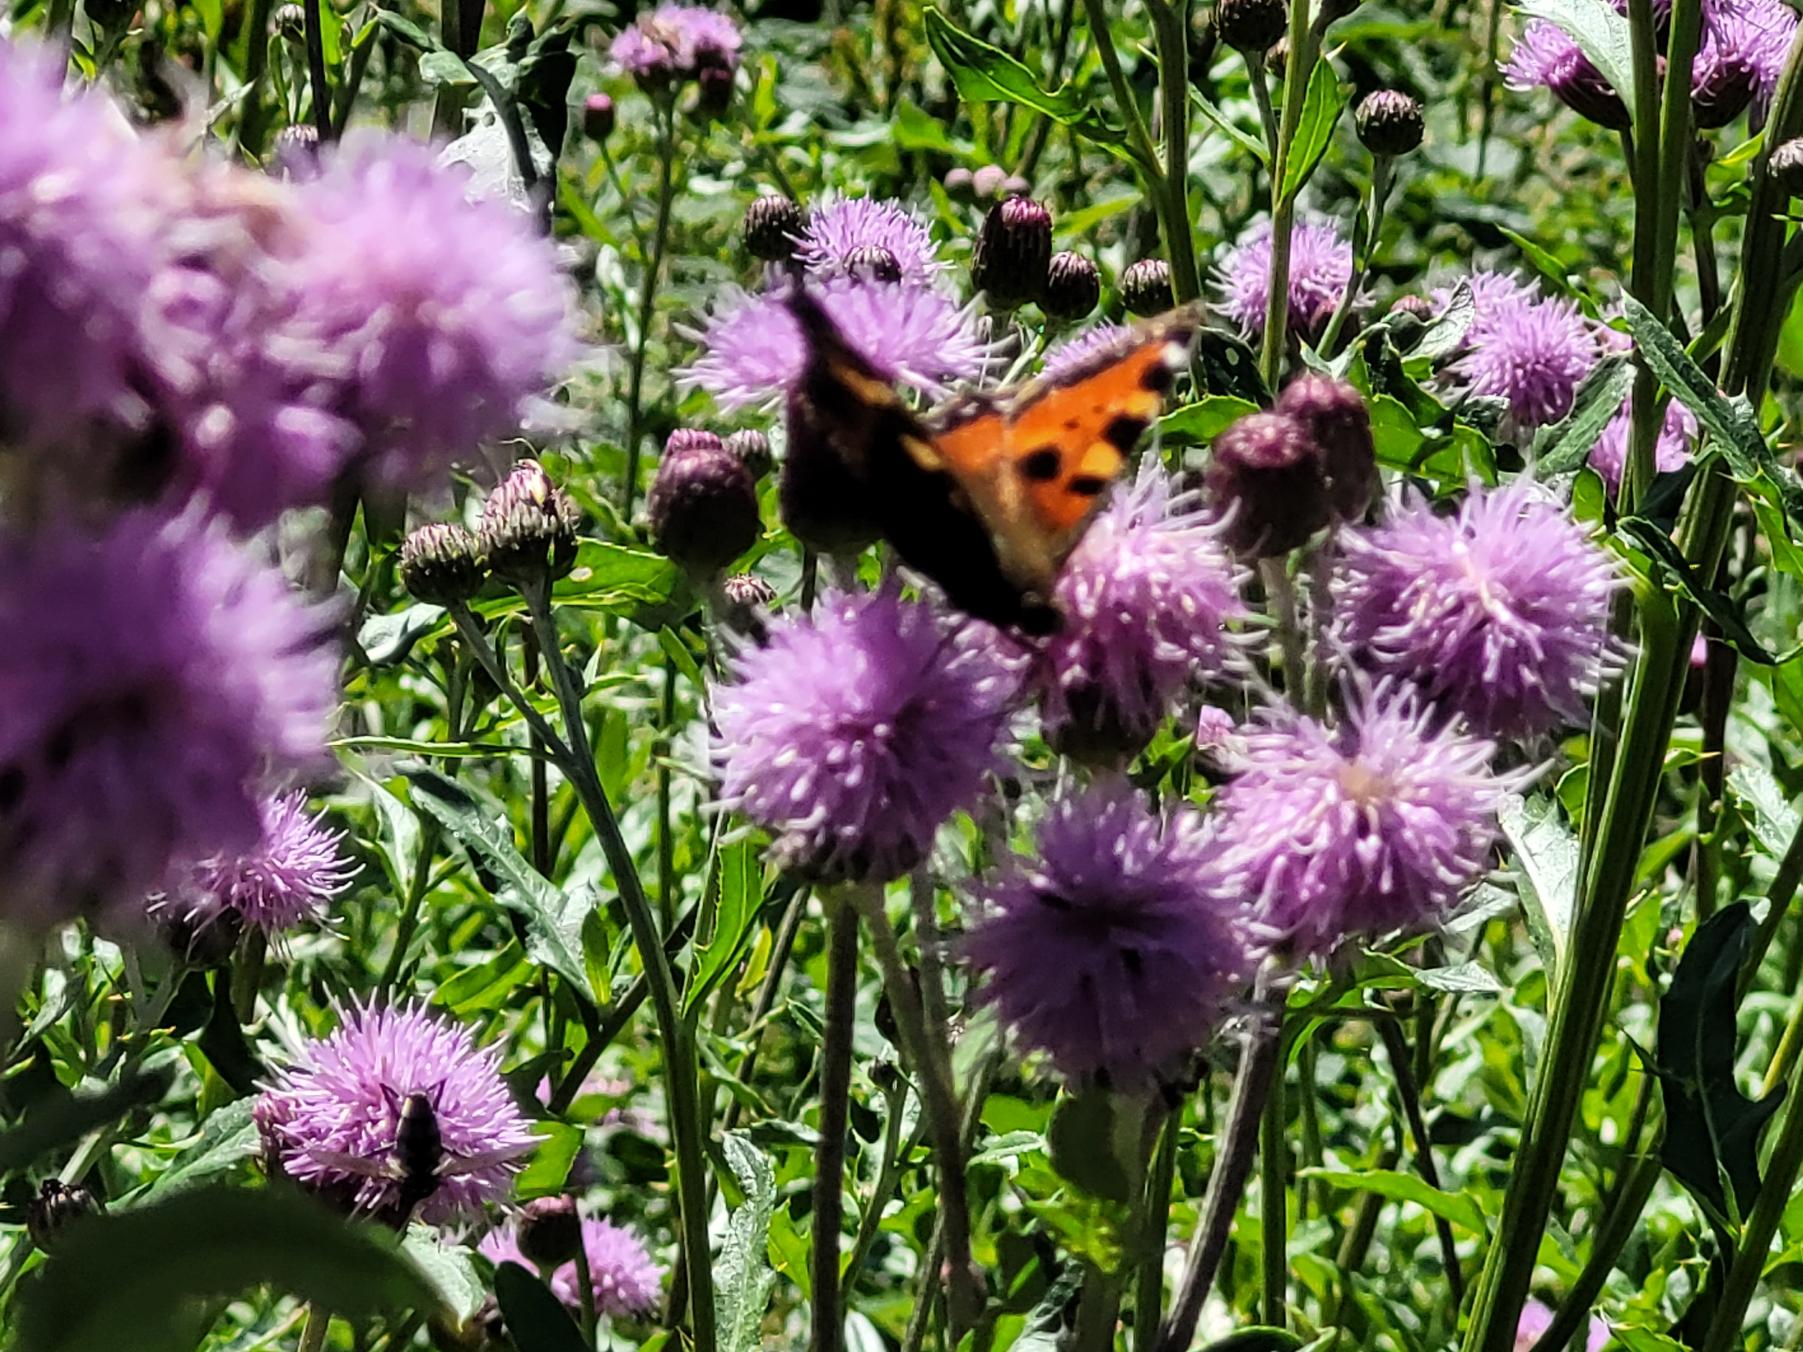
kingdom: Animalia
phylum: Arthropoda
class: Insecta
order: Lepidoptera
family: Nymphalidae
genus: Aglais
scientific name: Aglais urticae
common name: Nældens takvinge
